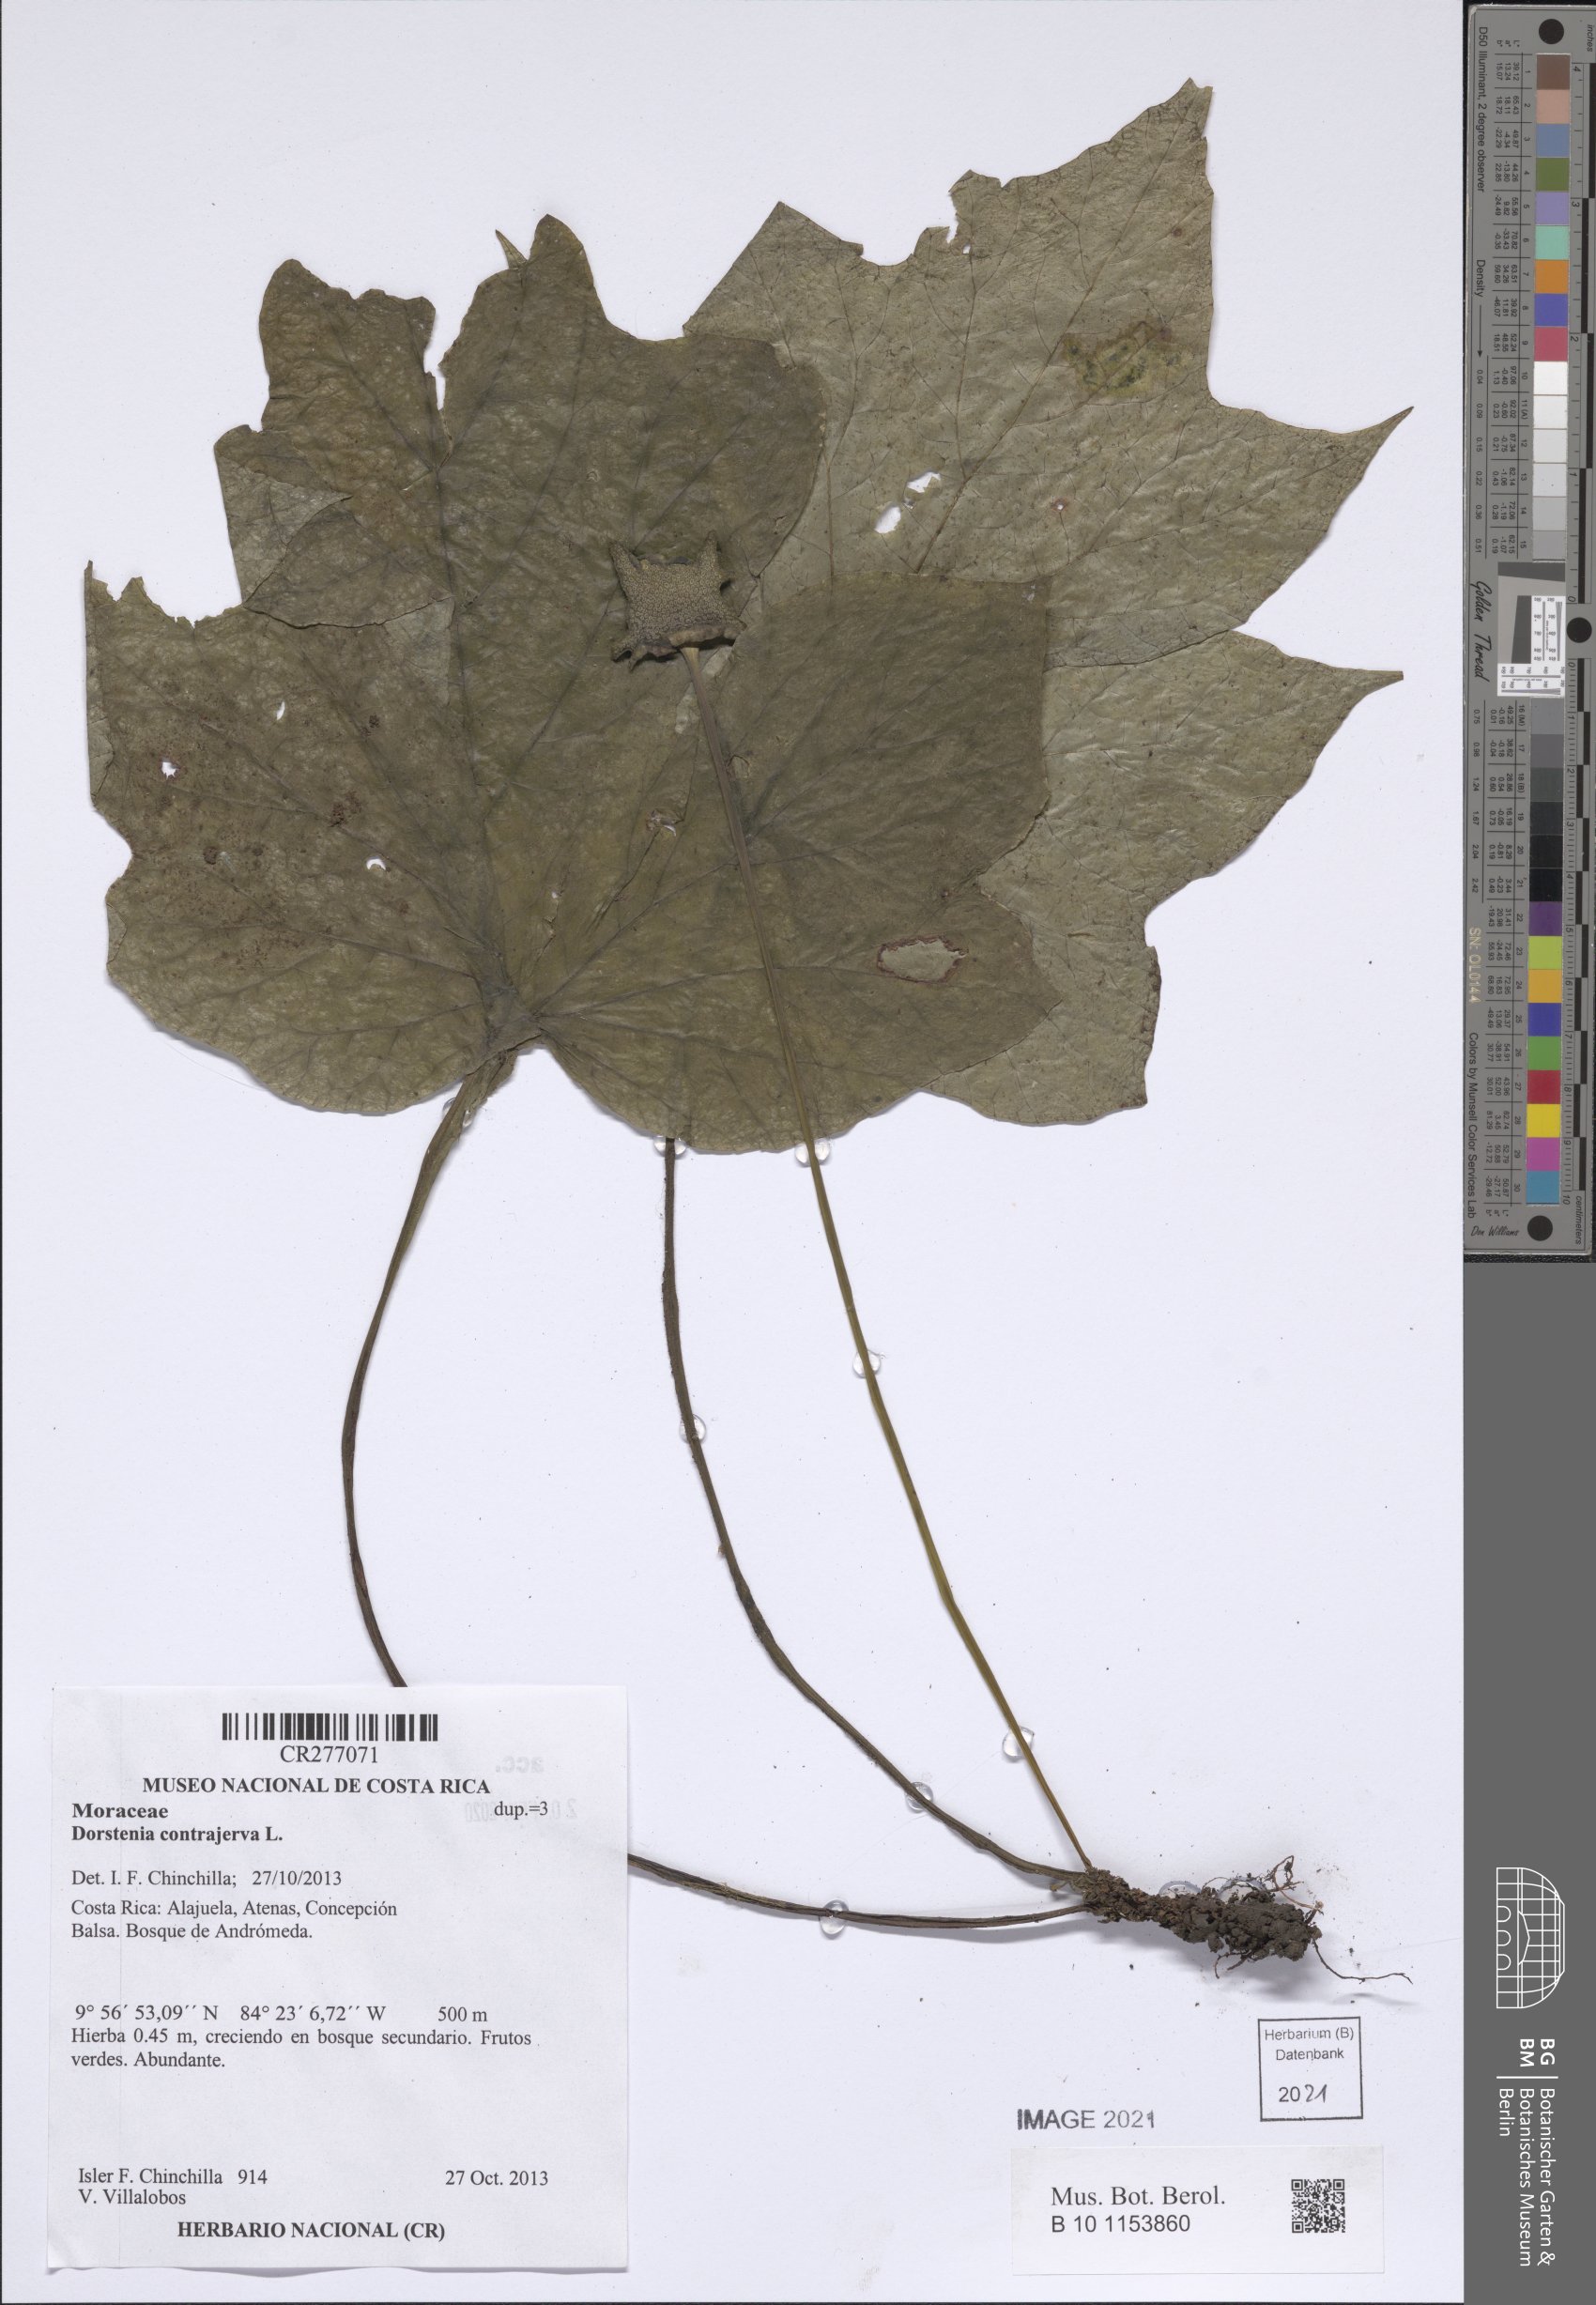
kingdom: Plantae
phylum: Tracheophyta
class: Magnoliopsida
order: Rosales
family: Moraceae
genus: Dorstenia
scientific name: Dorstenia contrajerva
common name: Tusilla
